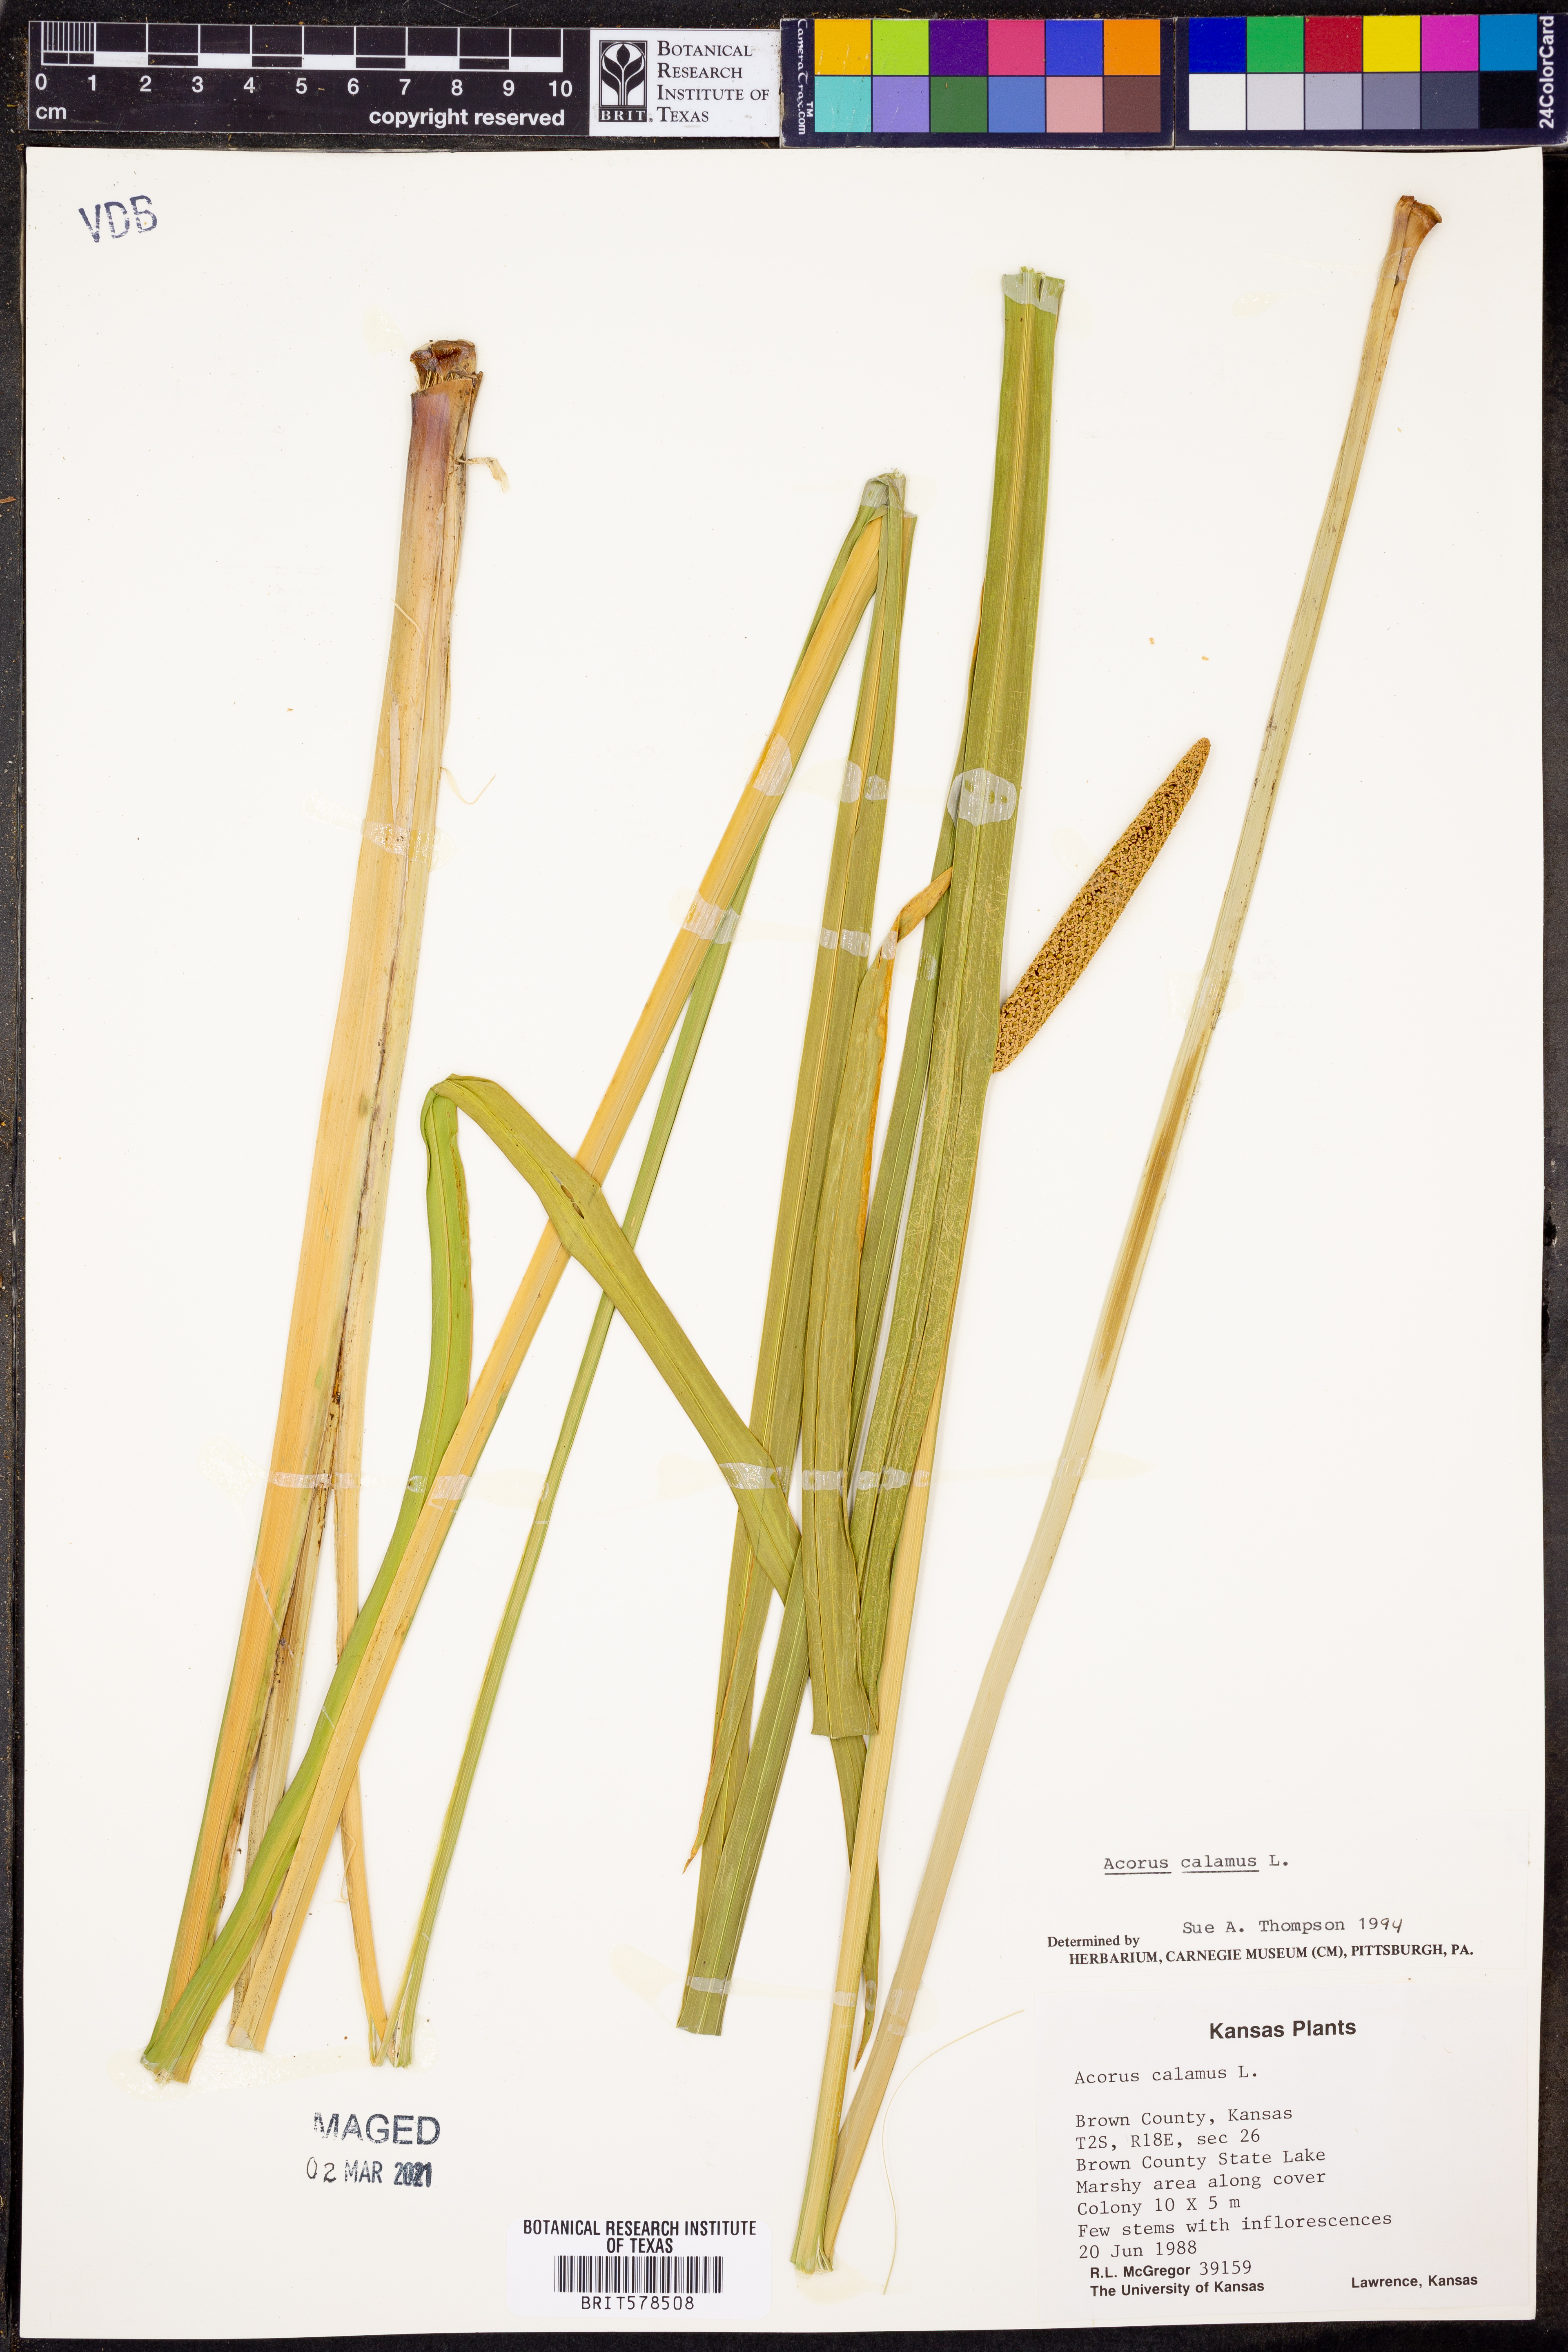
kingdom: Plantae
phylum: Tracheophyta
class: Liliopsida
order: Acorales
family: Acoraceae
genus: Acorus
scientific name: Acorus calamus
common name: Sweet-flag
